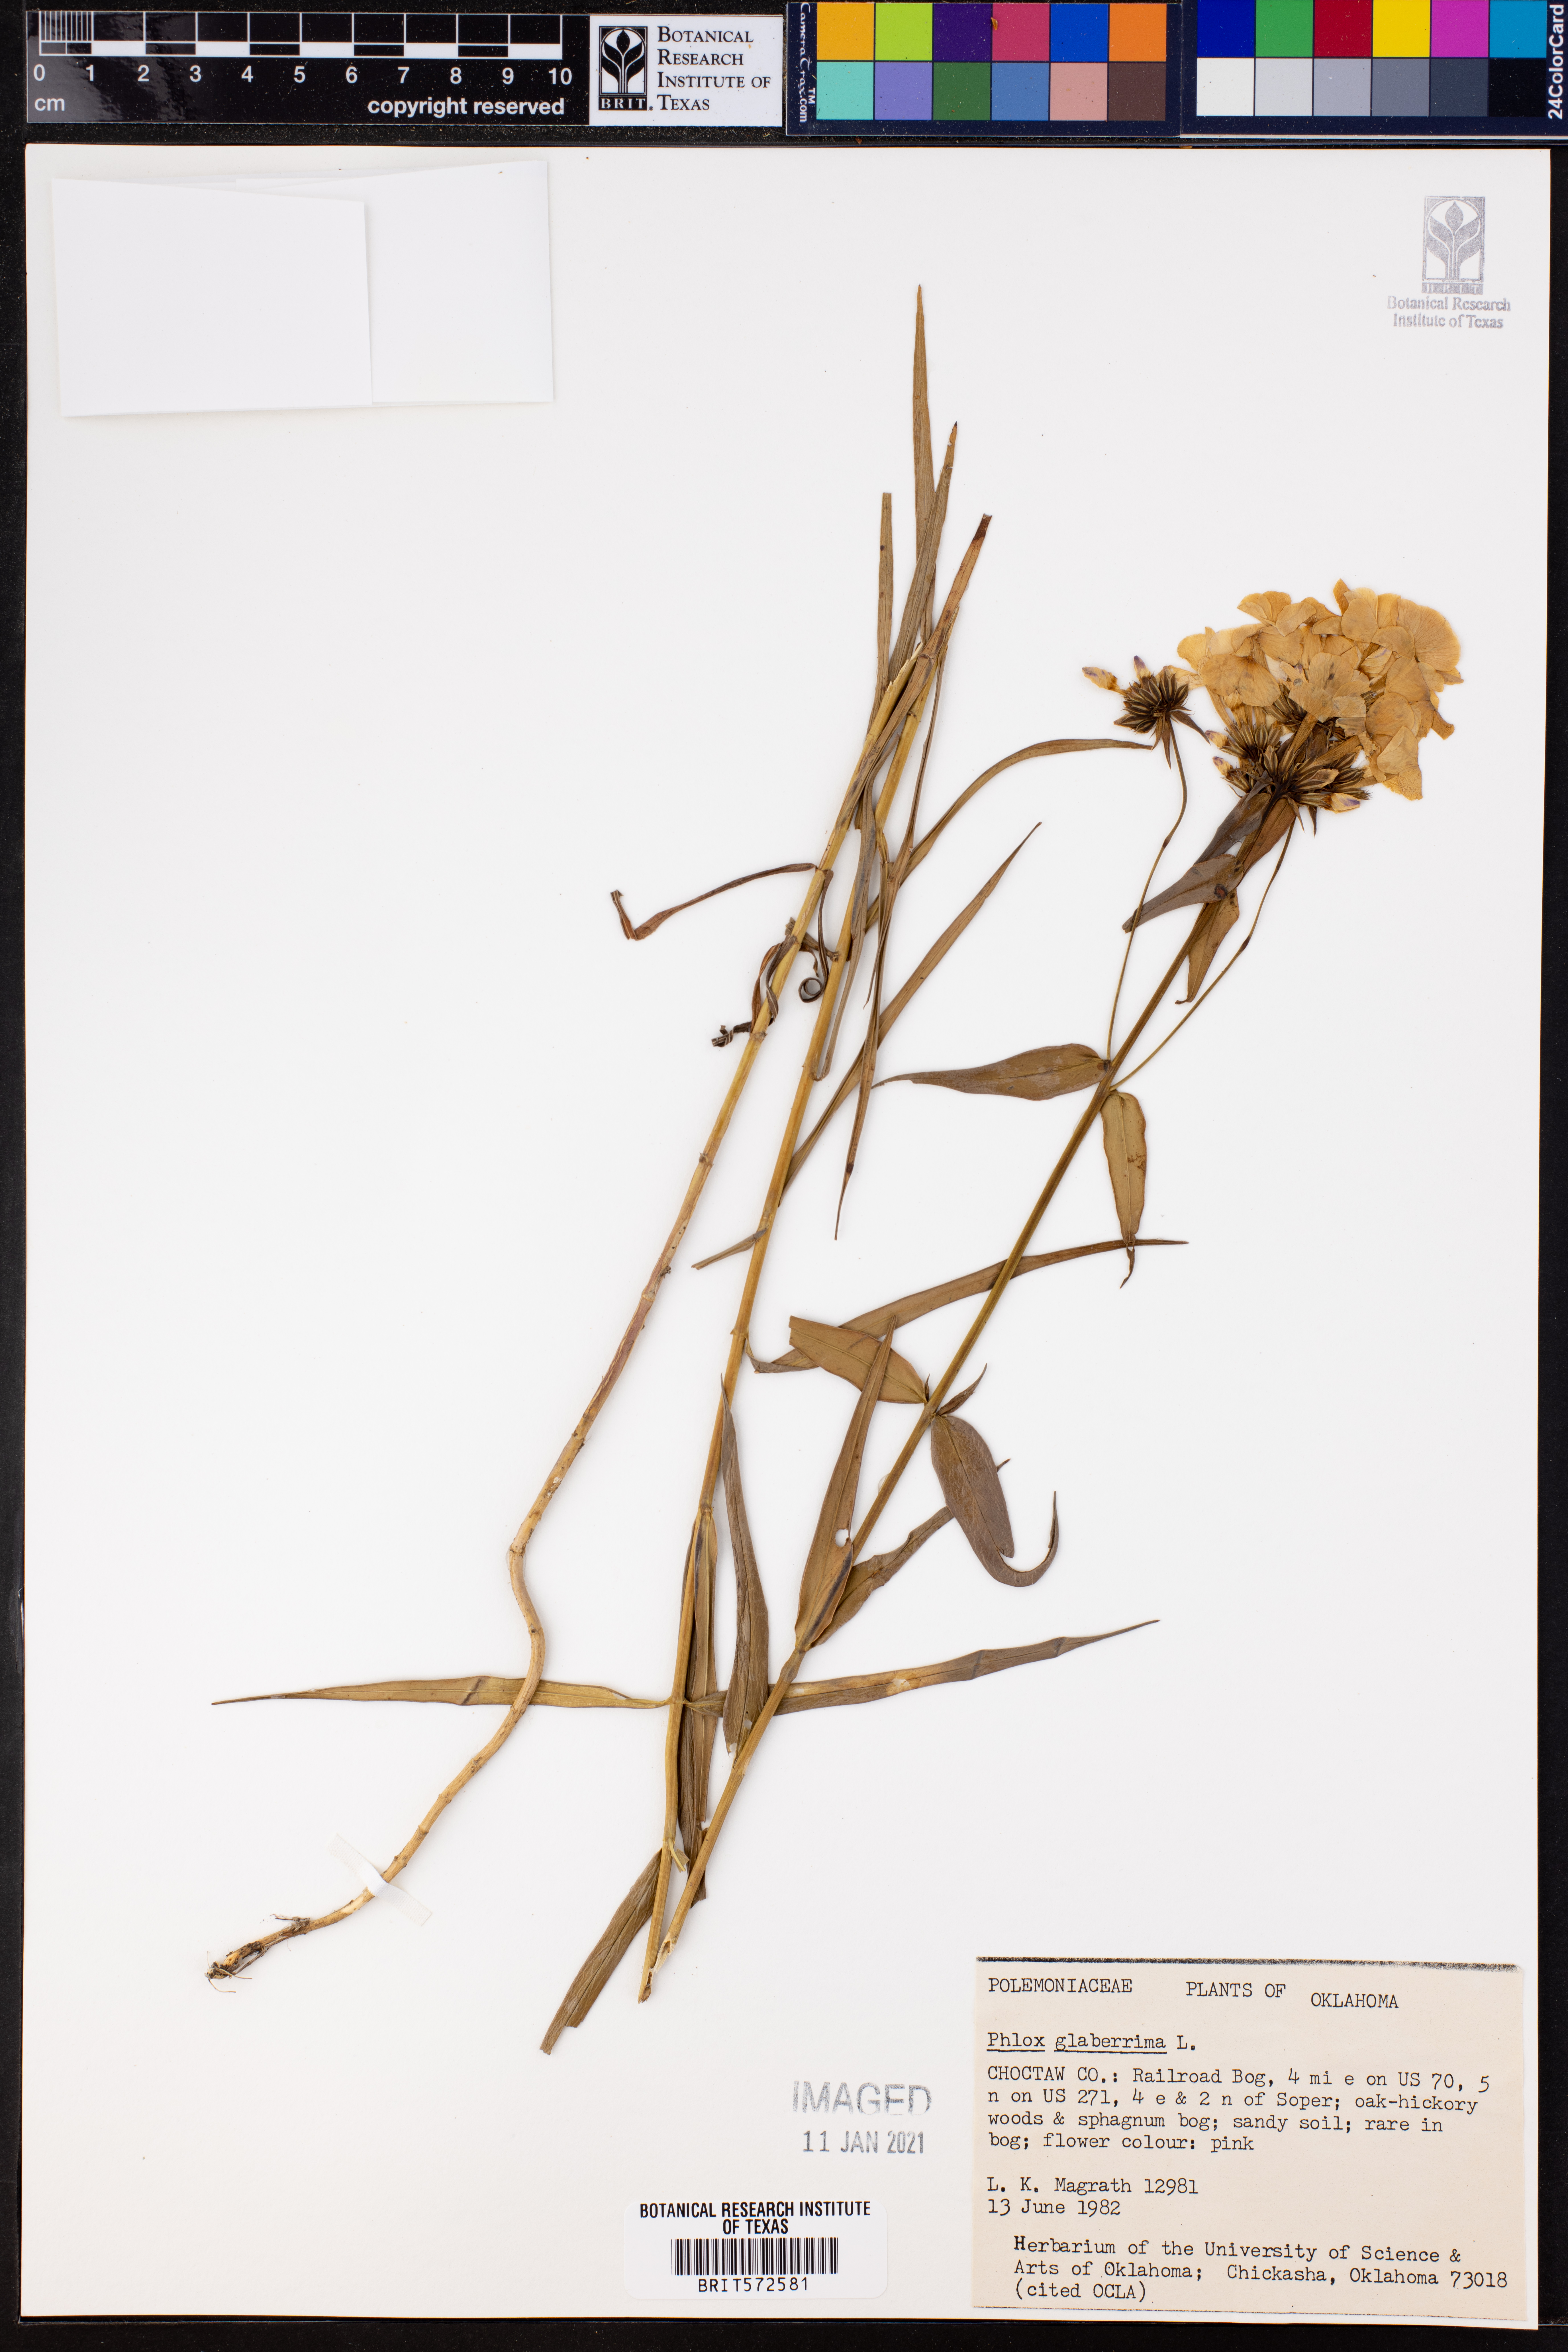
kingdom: Plantae
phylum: Tracheophyta
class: Magnoliopsida
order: Ericales
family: Polemoniaceae
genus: Phlox
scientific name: Phlox glaberrima
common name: Smooth phlox
